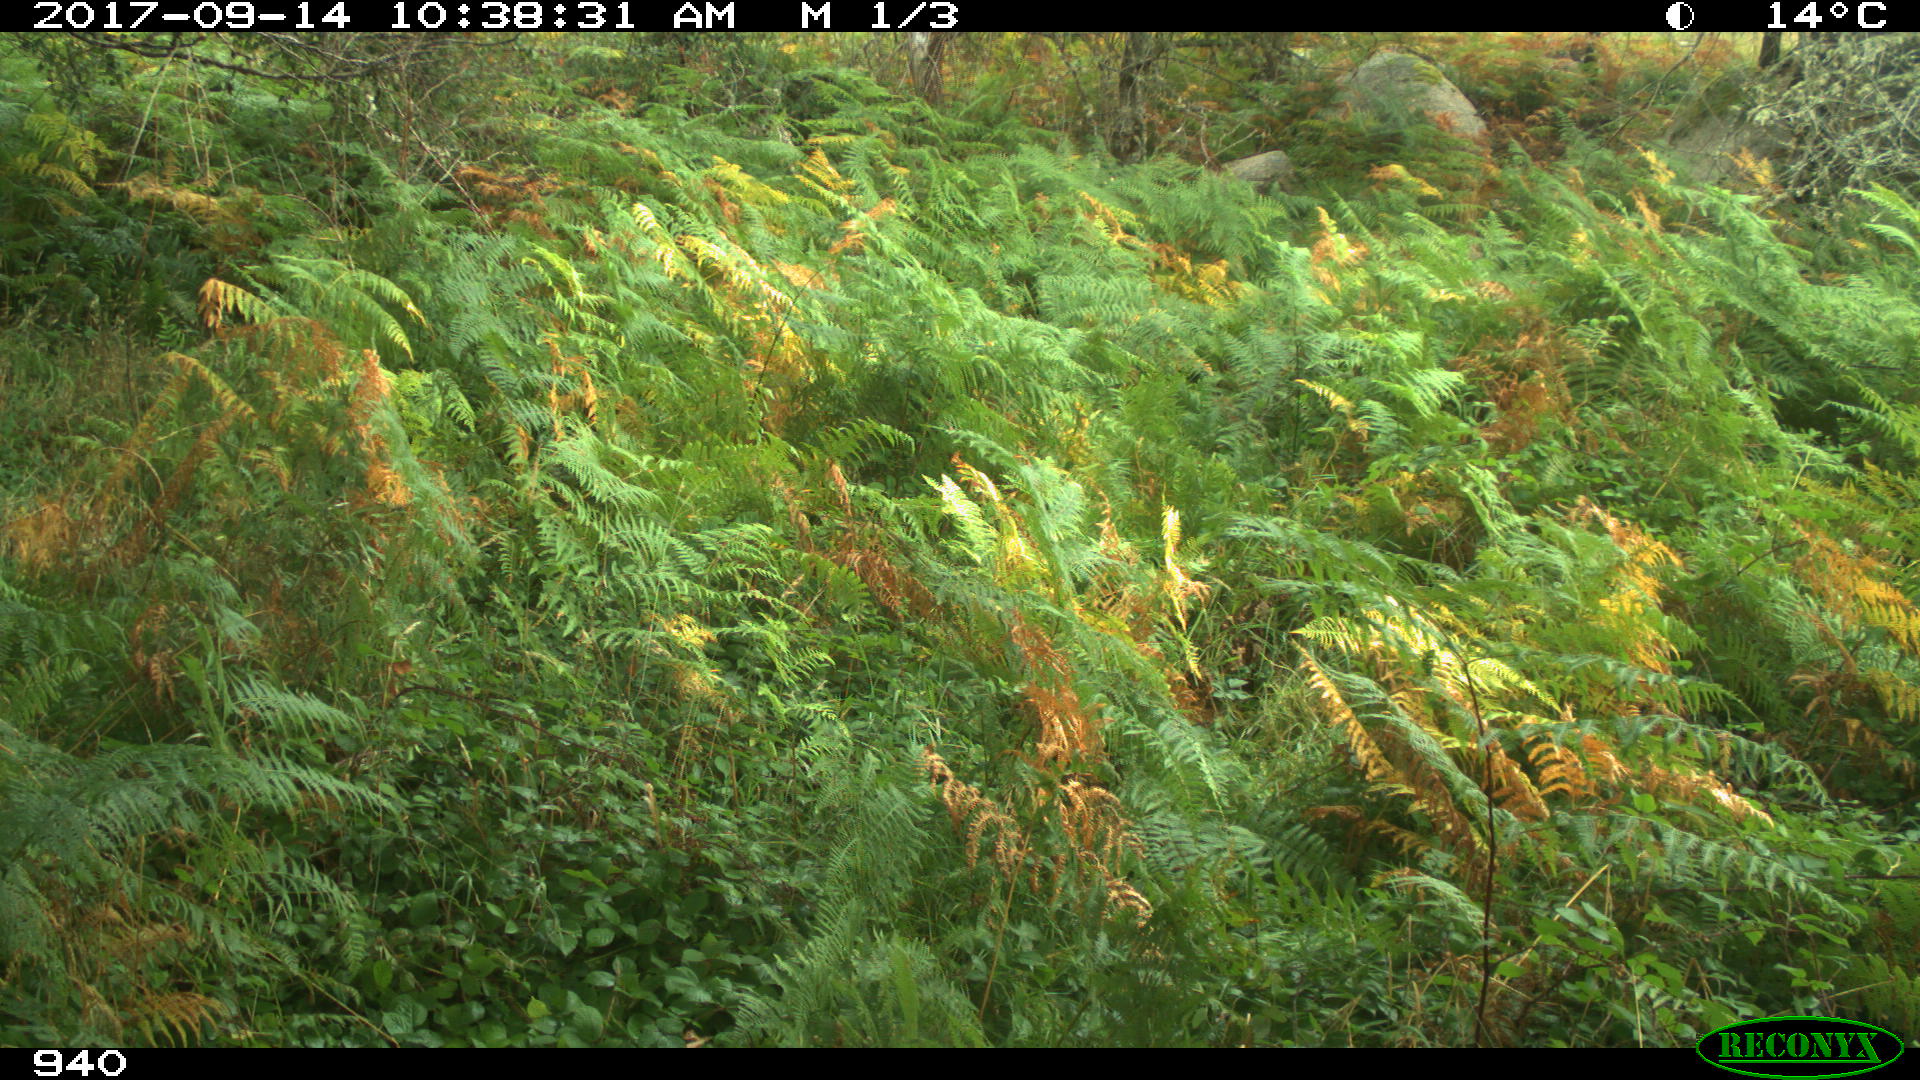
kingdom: Animalia
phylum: Chordata
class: Mammalia
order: Artiodactyla
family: Bovidae
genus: Bos
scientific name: Bos taurus
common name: Domesticated cattle
